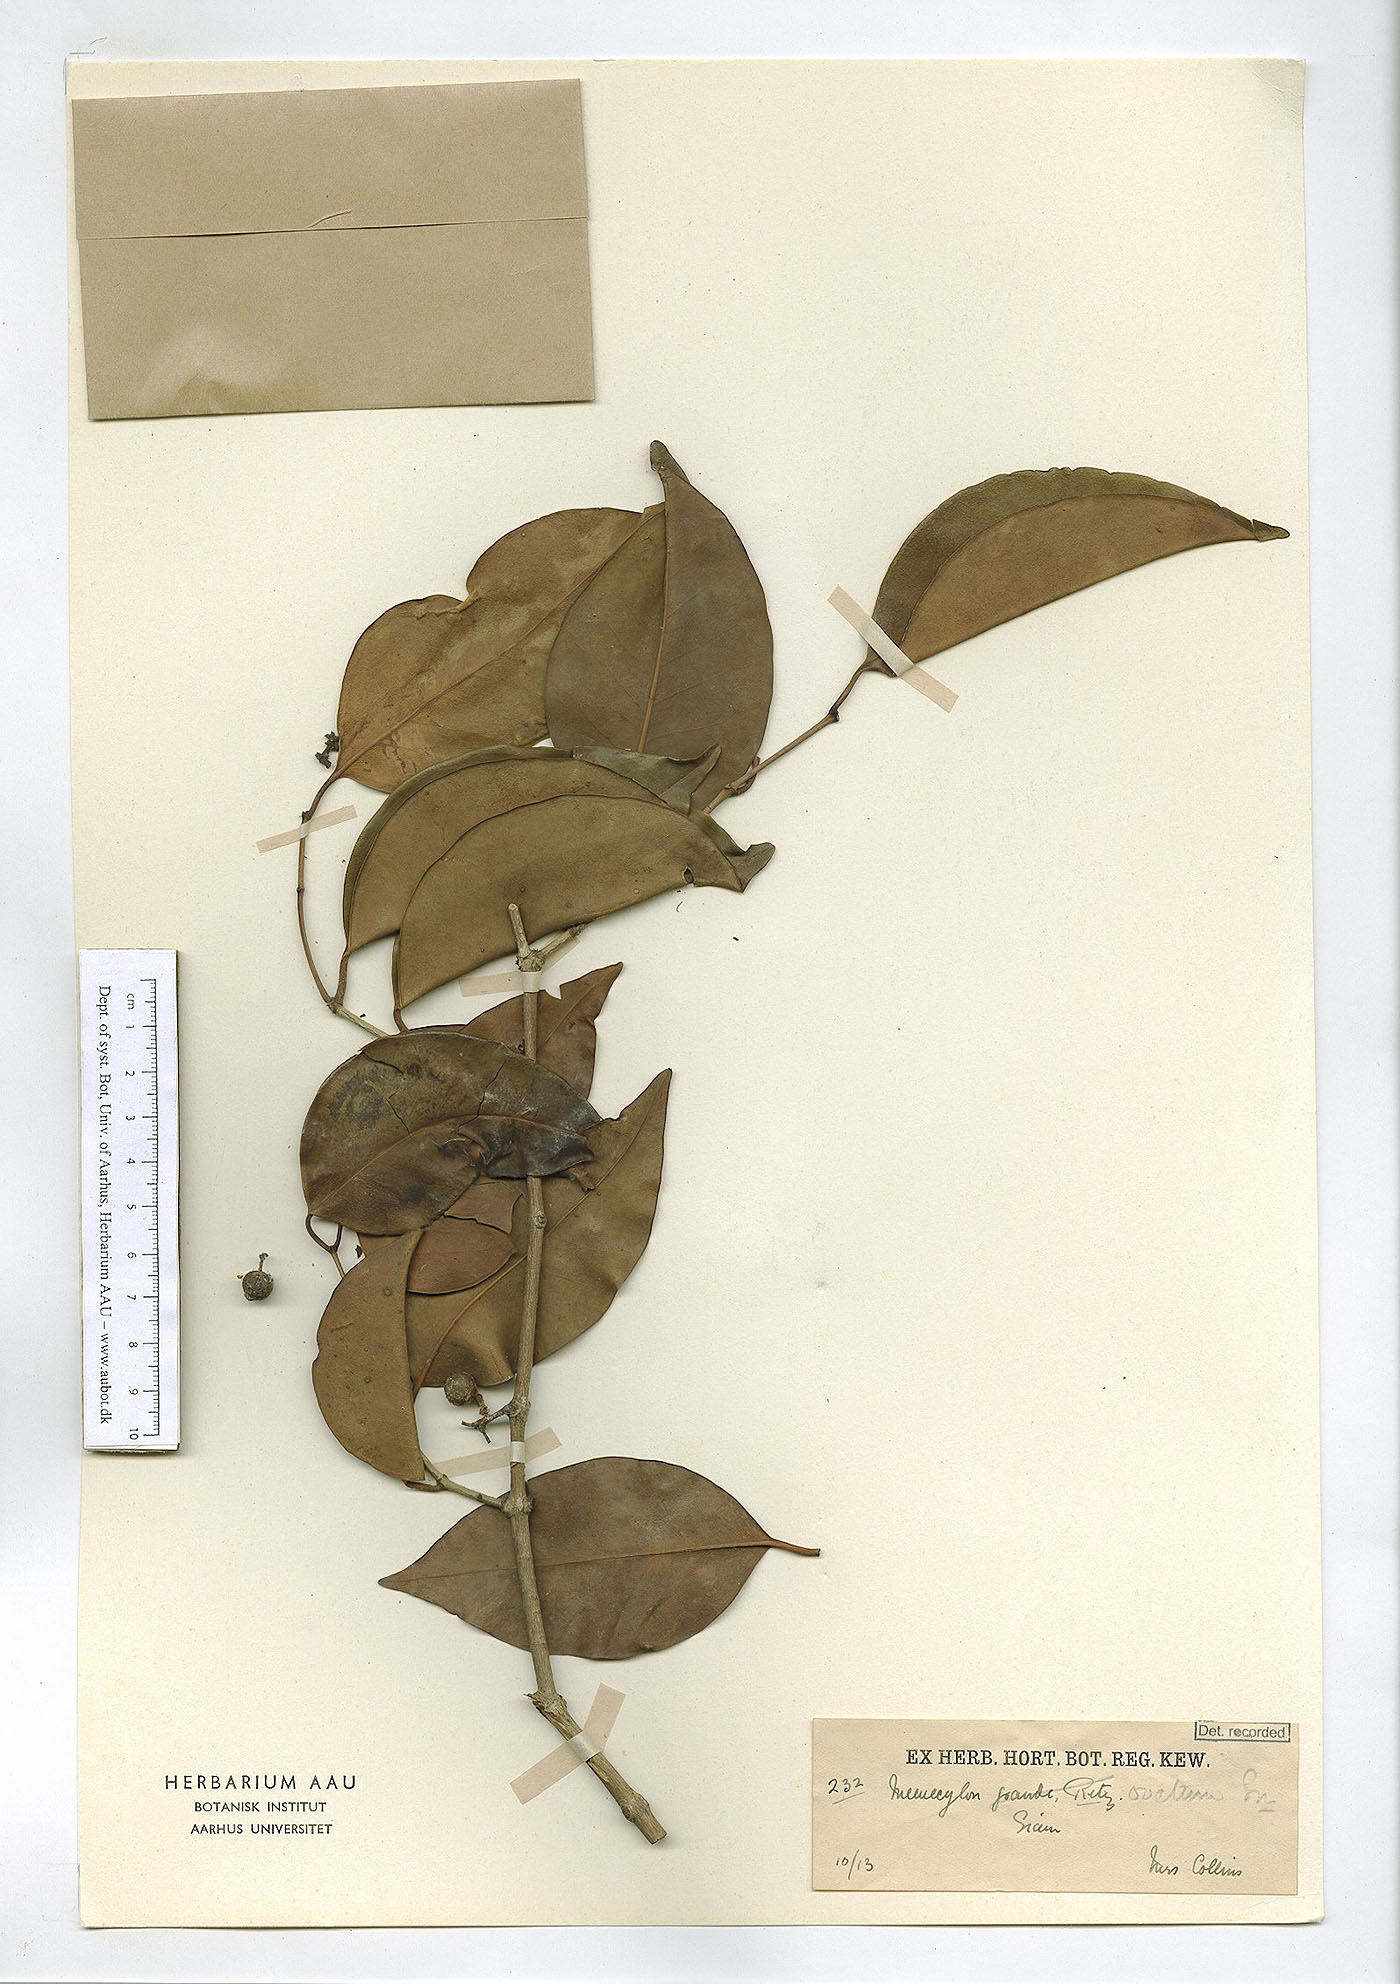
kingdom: Plantae
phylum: Tracheophyta
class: Magnoliopsida
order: Myrtales
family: Melastomataceae
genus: Memecylon
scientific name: Memecylon ovatum
